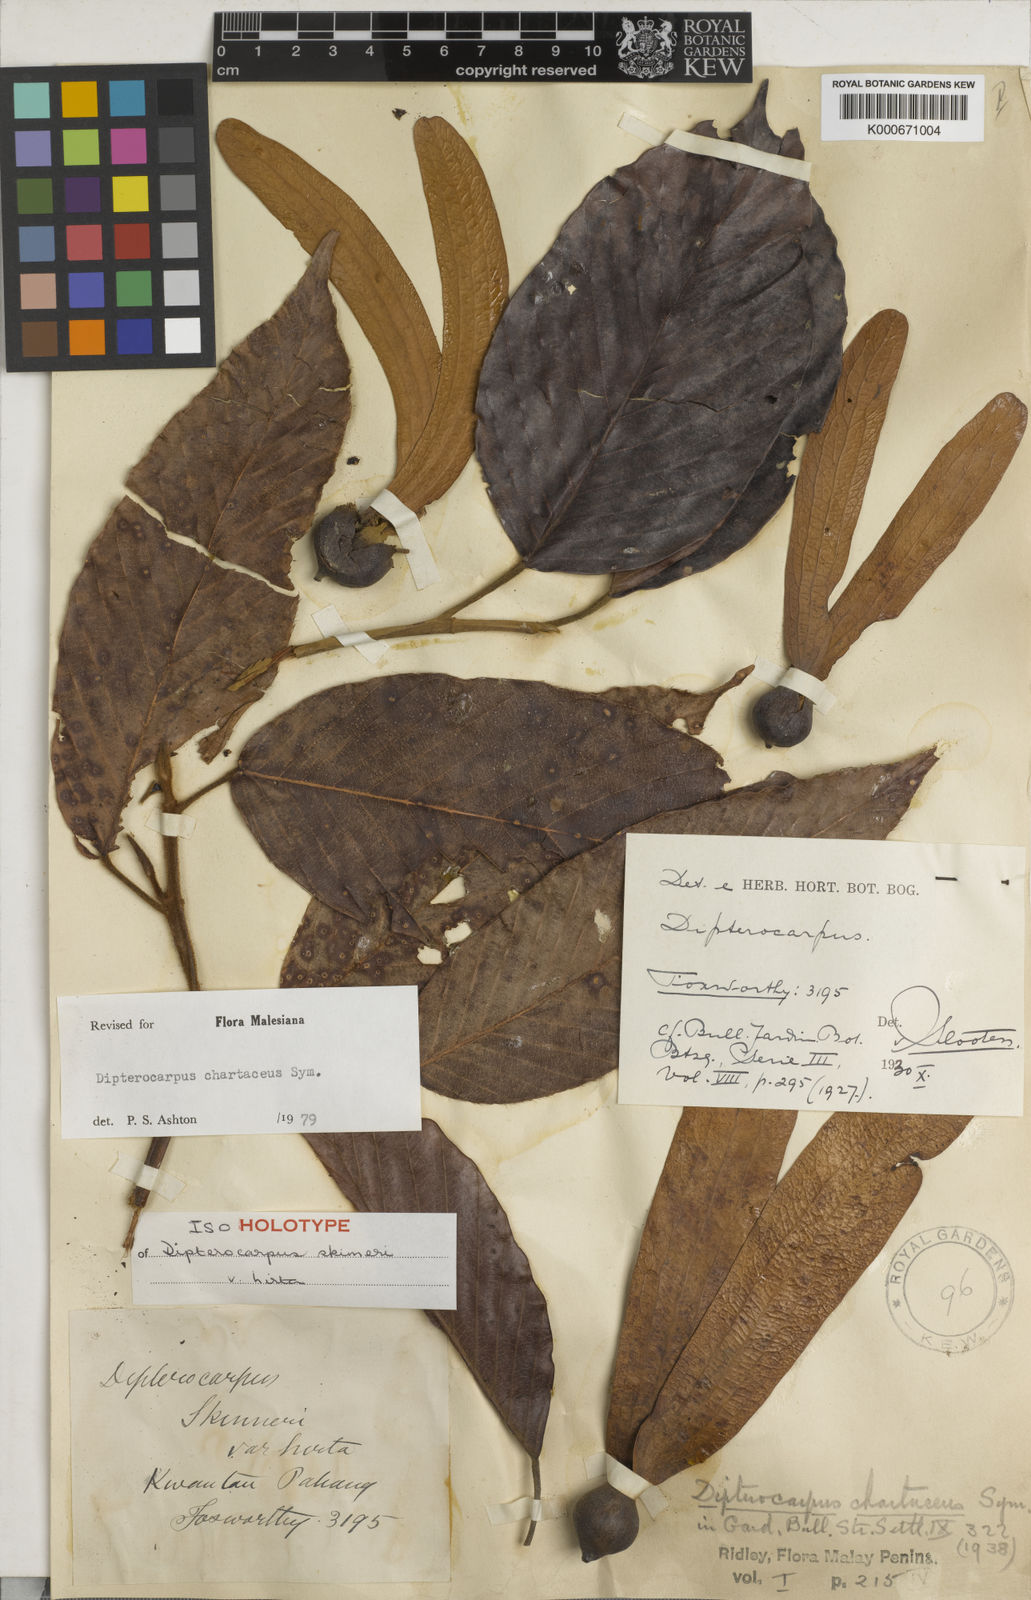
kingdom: Plantae
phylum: Tracheophyta
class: Magnoliopsida
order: Malvales
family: Dipterocarpaceae
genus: Dipterocarpus
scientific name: Dipterocarpus chartaceus
